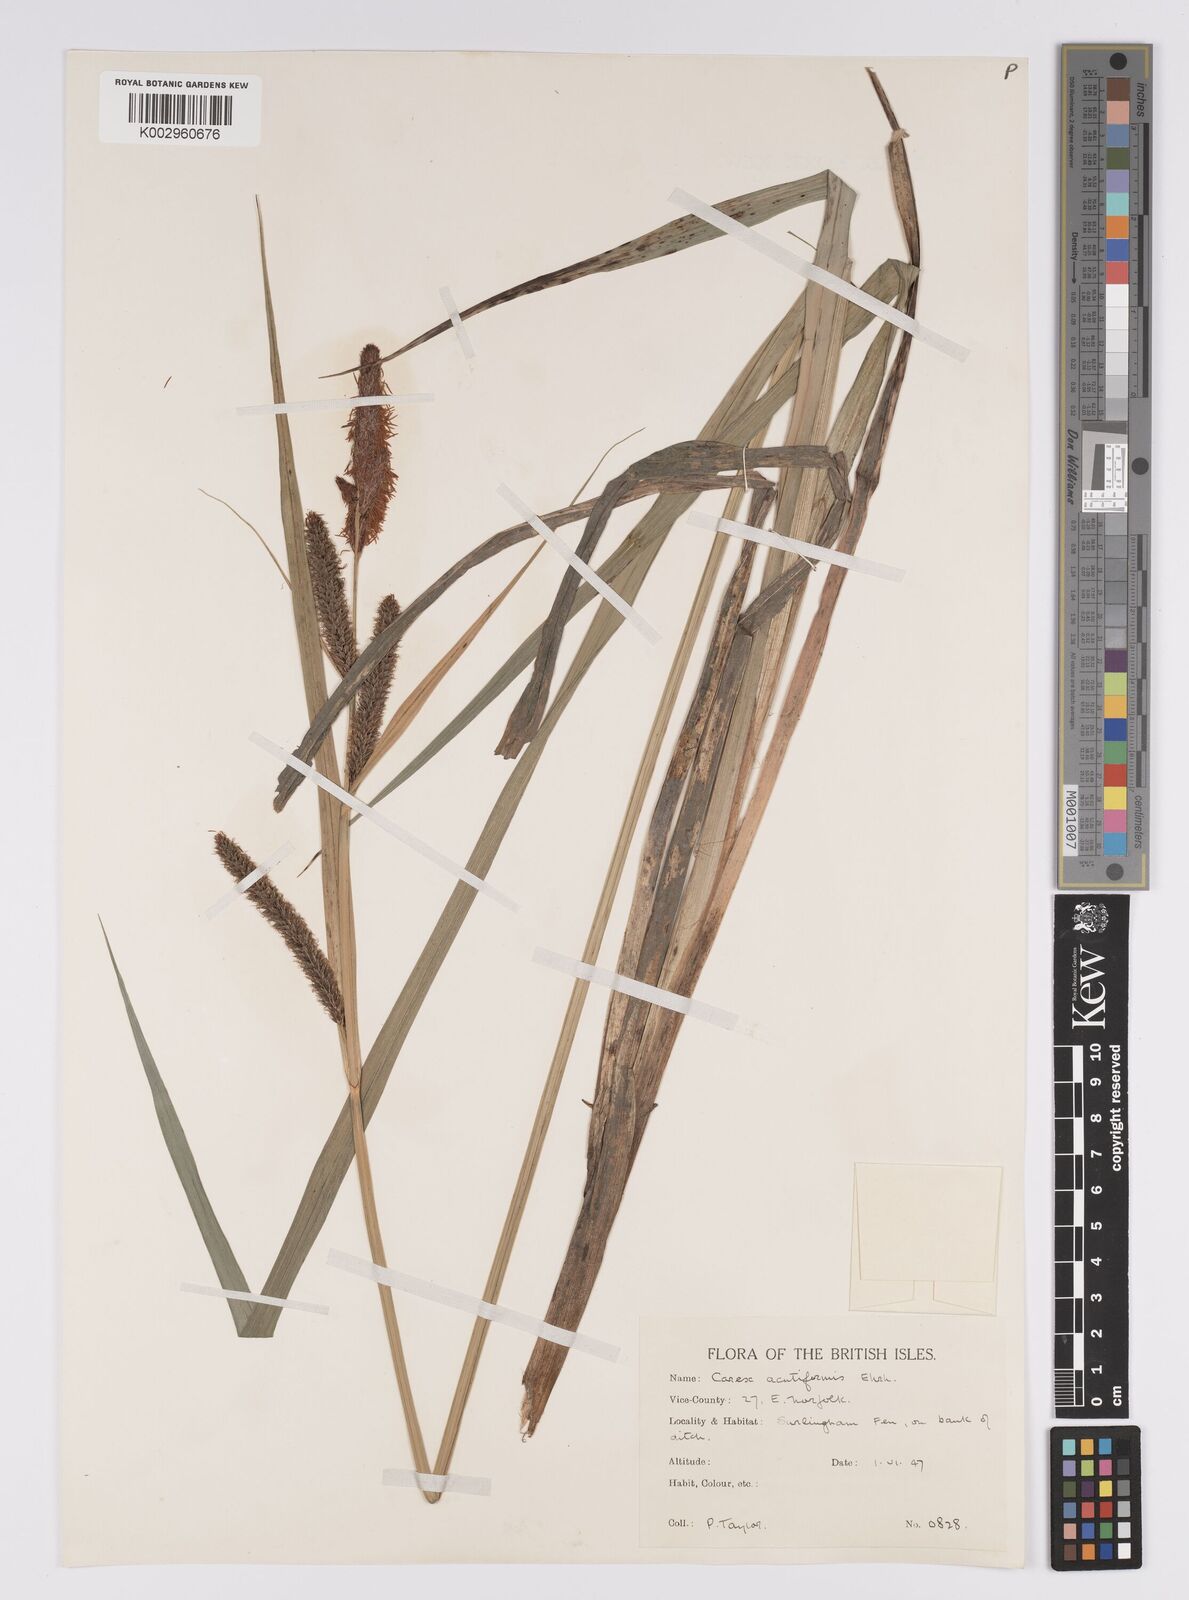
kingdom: Plantae
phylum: Tracheophyta
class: Liliopsida
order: Poales
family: Cyperaceae
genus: Carex
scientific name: Carex acutiformis
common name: Lesser pond-sedge
